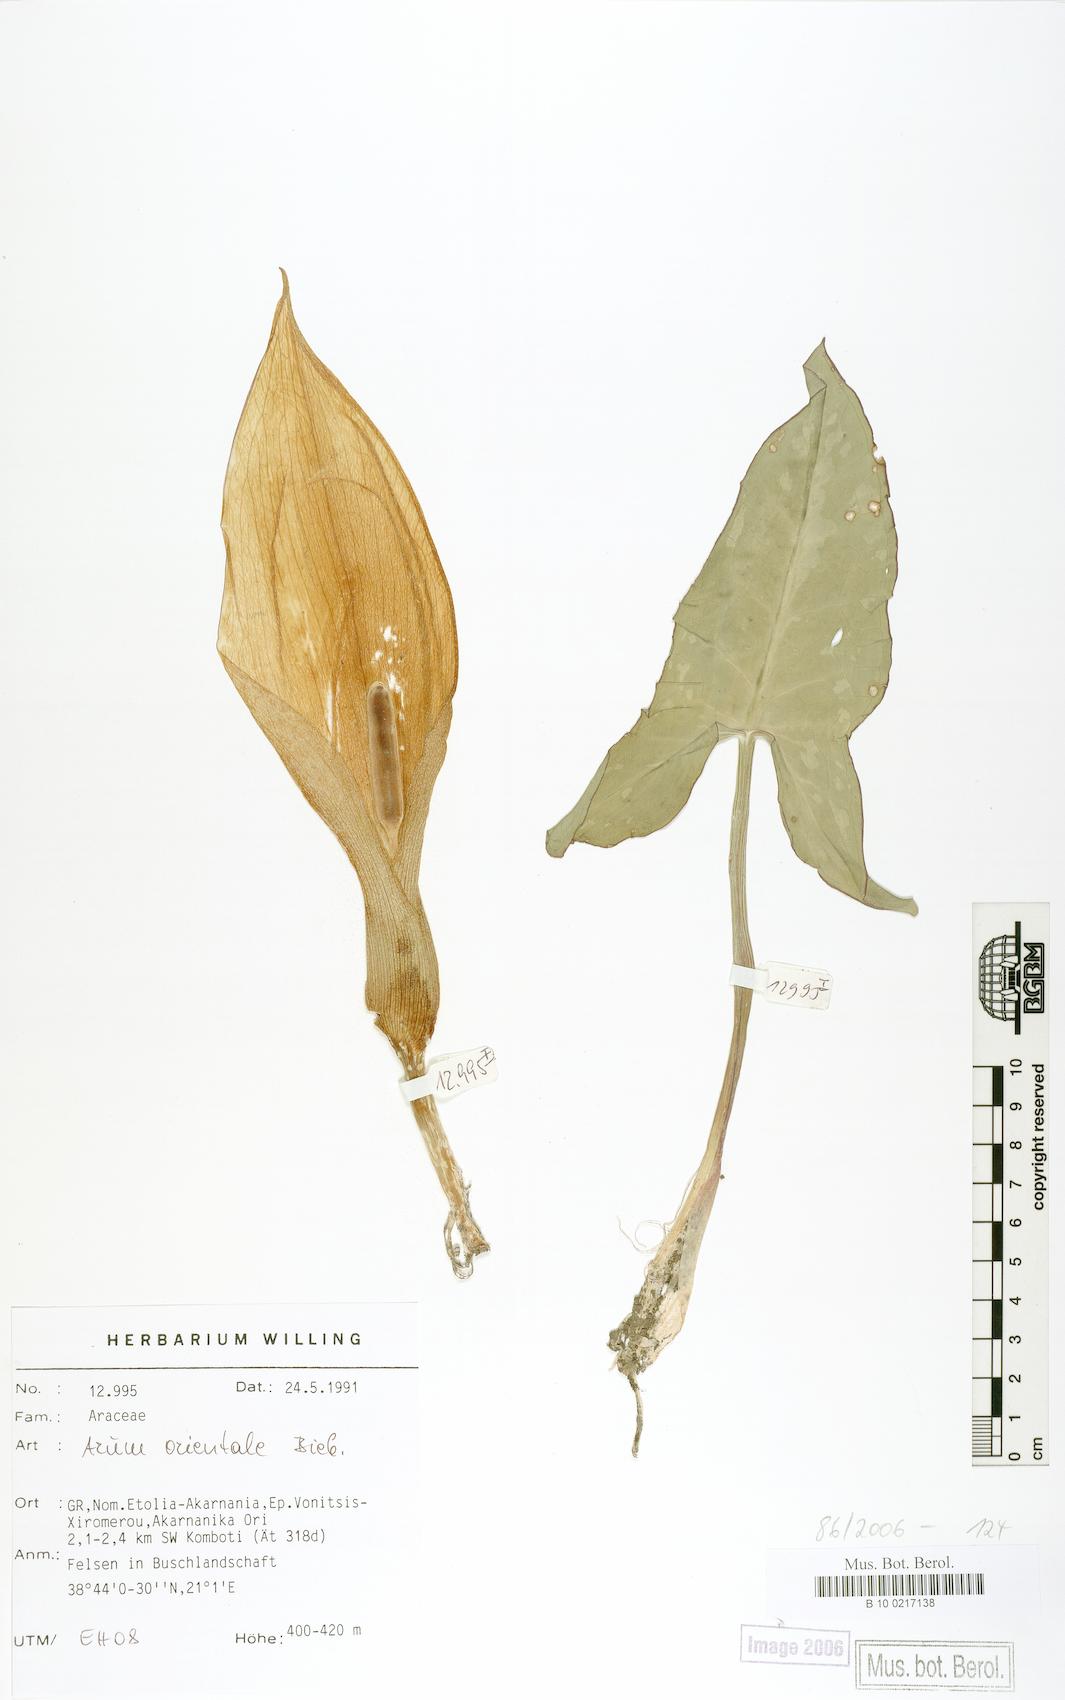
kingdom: Plantae
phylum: Tracheophyta
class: Liliopsida
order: Alismatales
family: Araceae
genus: Arum
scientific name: Arum orientale
